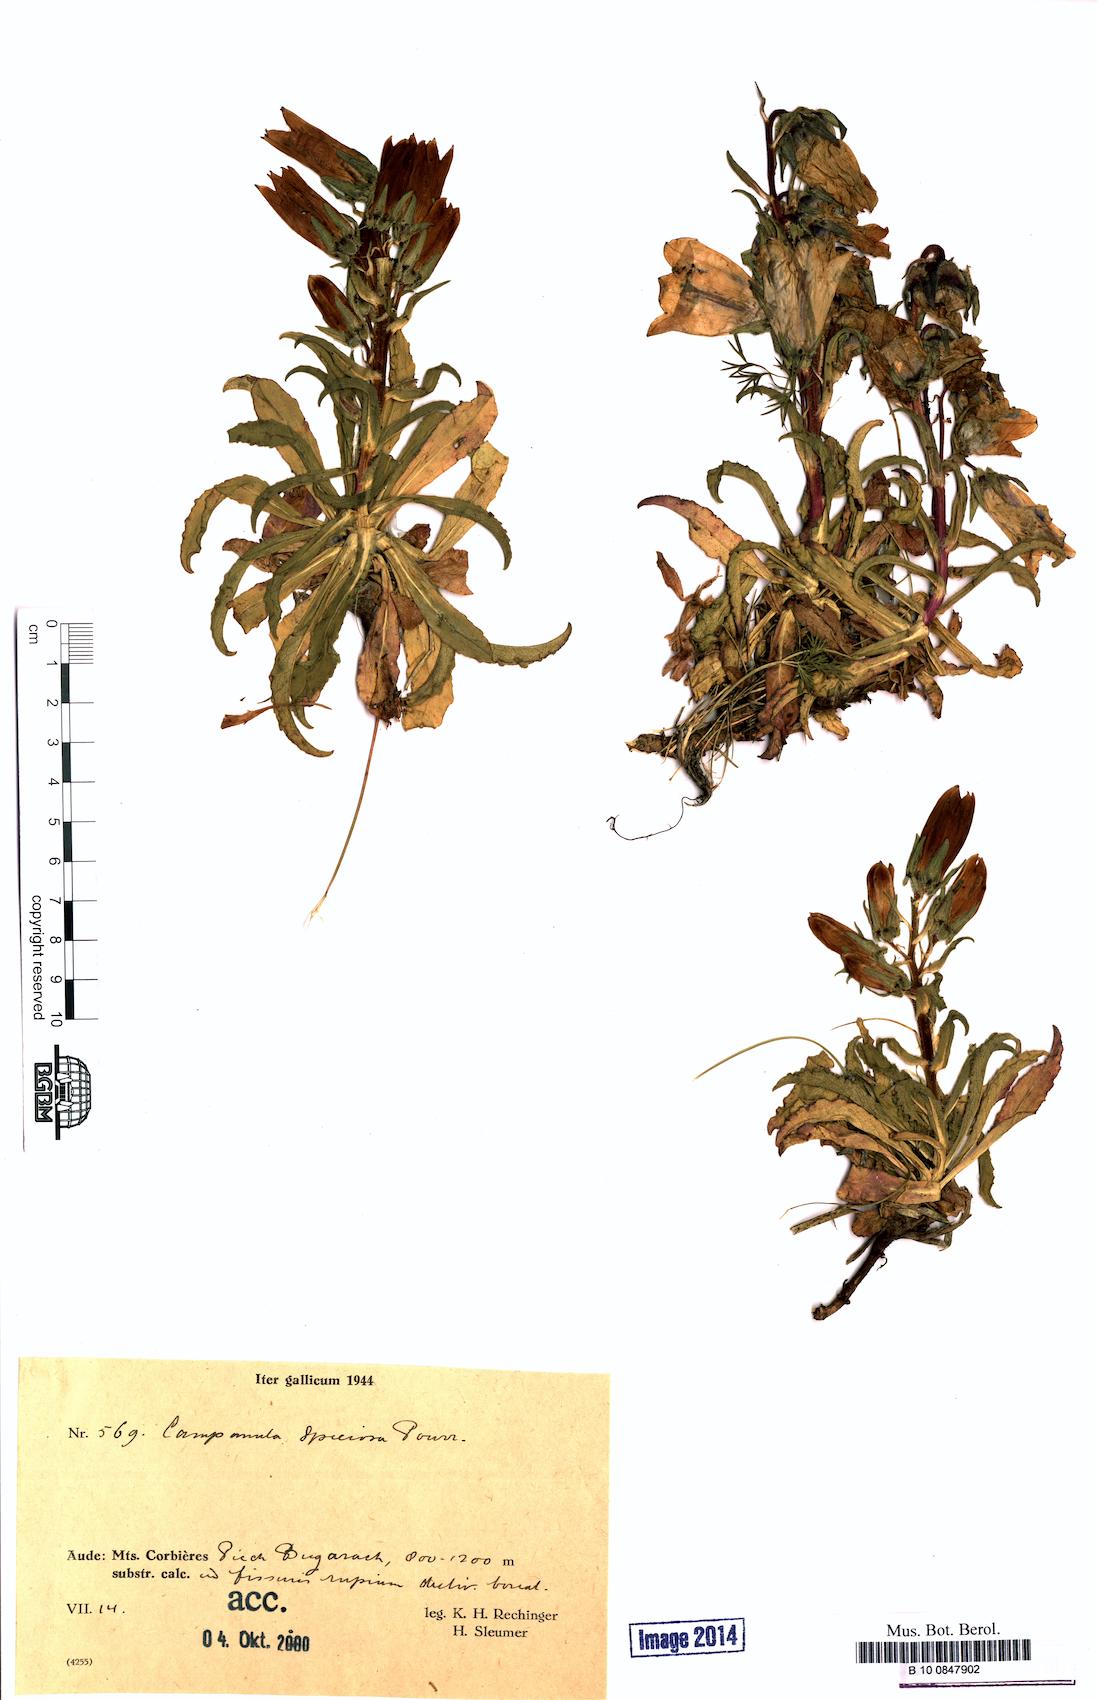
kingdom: Plantae
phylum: Tracheophyta
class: Magnoliopsida
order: Asterales
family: Campanulaceae
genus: Campanula
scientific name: Campanula glomerata
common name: Clustered bellflower
